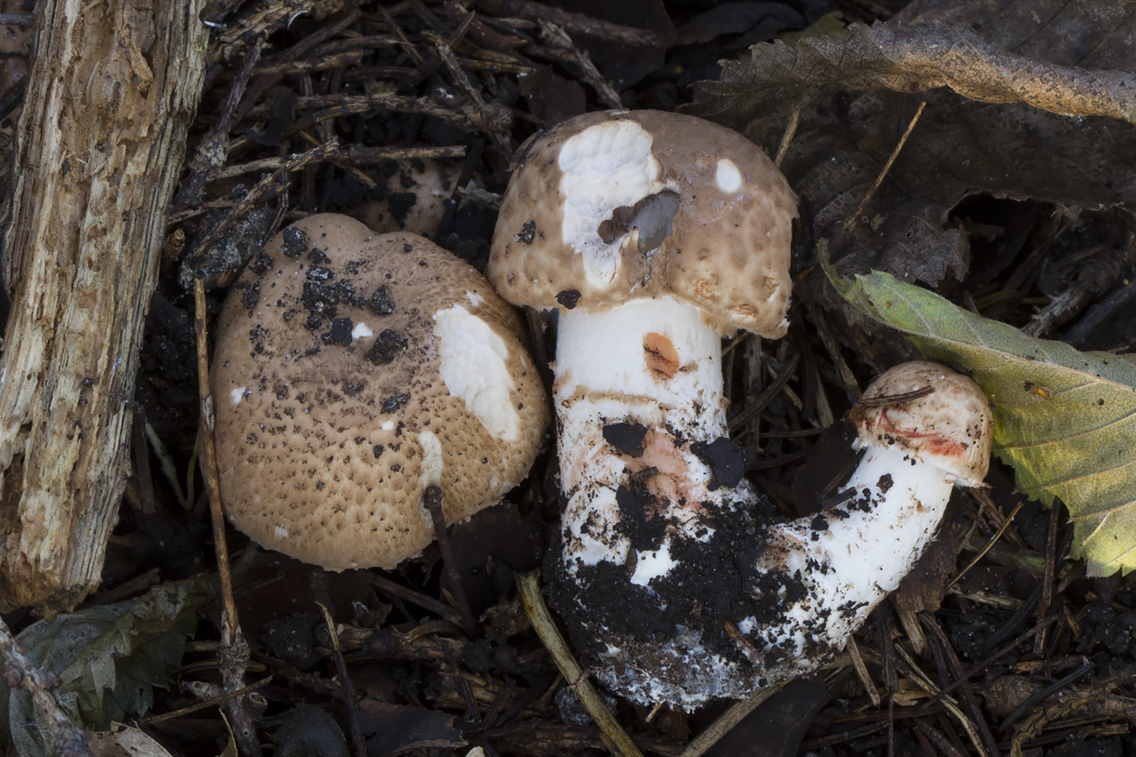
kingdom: Fungi
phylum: Basidiomycota
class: Agaricomycetes
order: Agaricales
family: Agaricaceae
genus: Agaricus
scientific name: Agaricus sylvaticus
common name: lille blod-champignon
